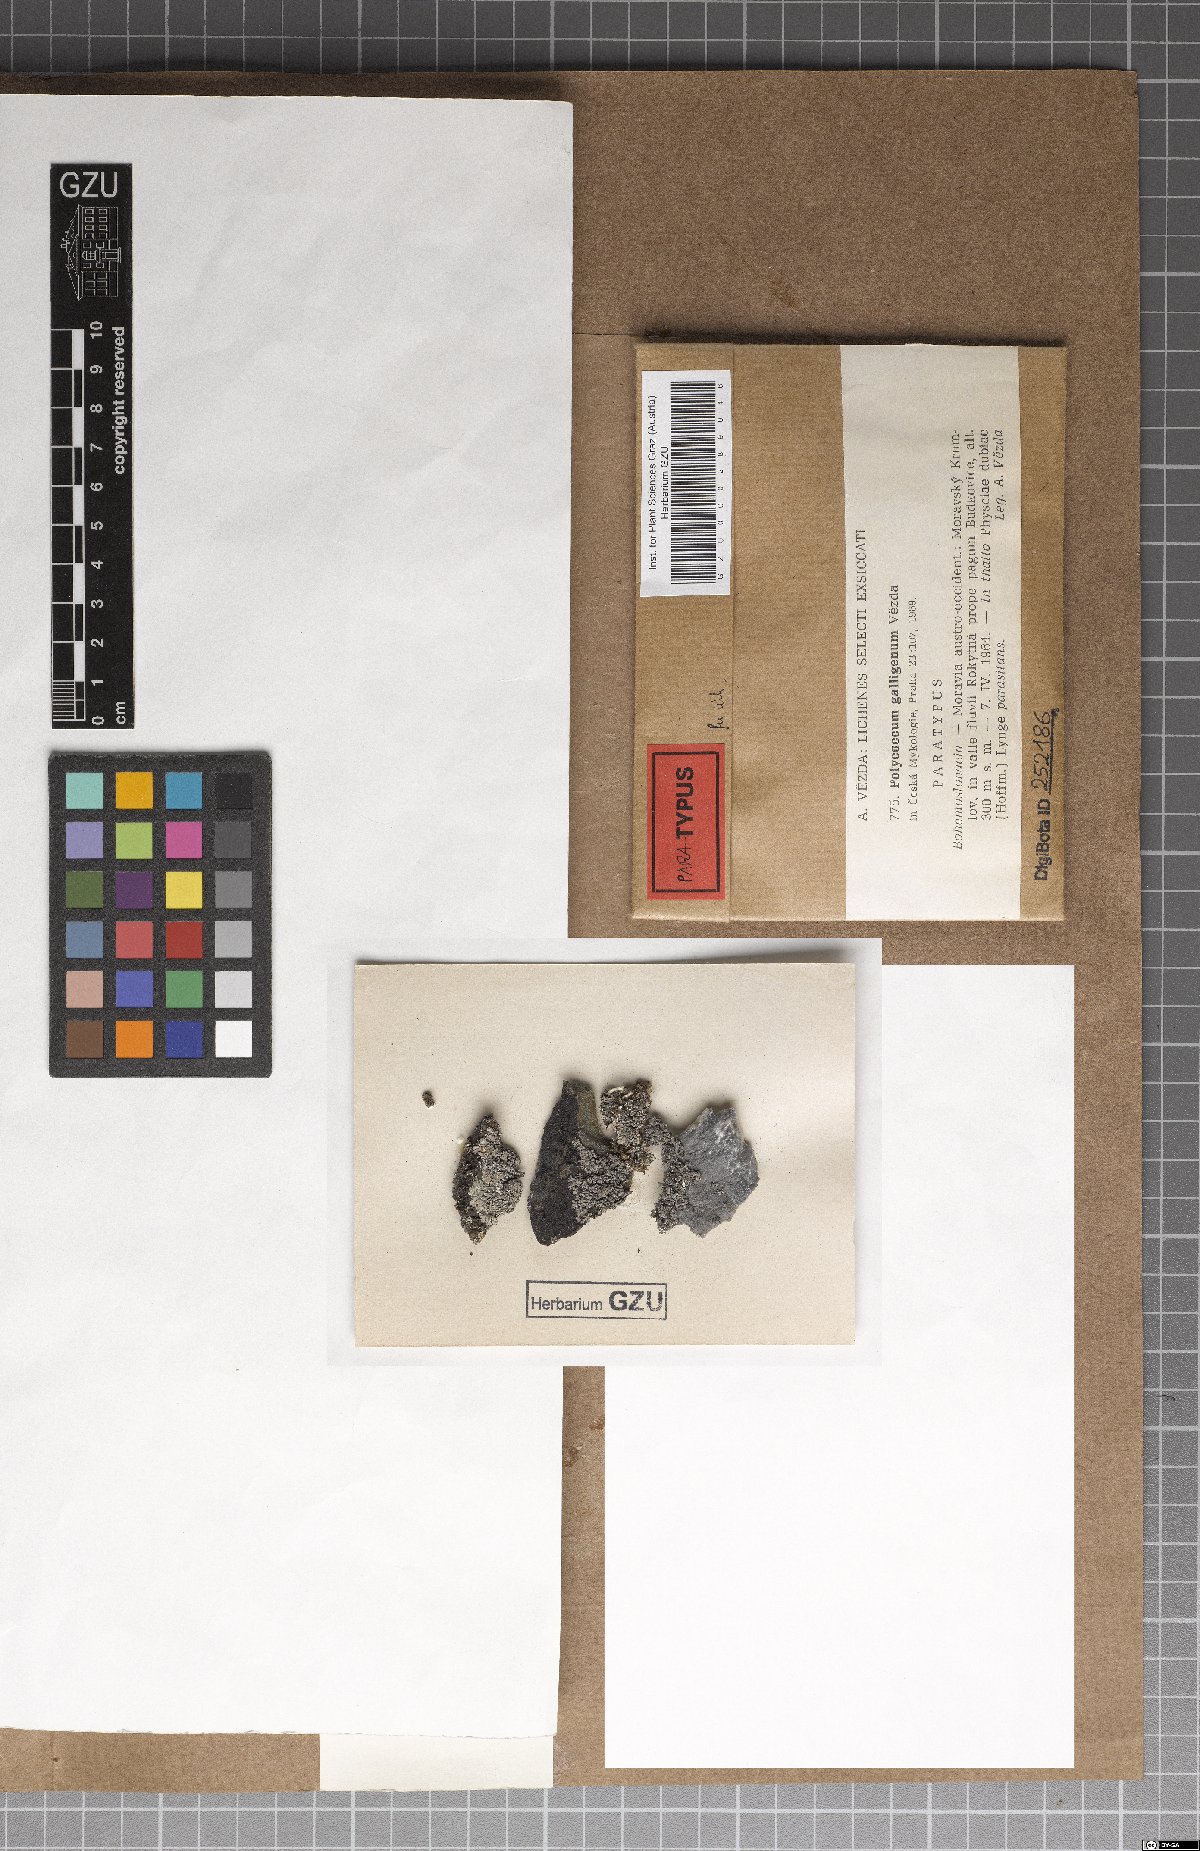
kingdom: Fungi
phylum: Ascomycota
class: Dothideomycetes
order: Trypetheliales
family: Polycoccaceae
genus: Polycoccum
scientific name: Polycoccum pulvinatum
